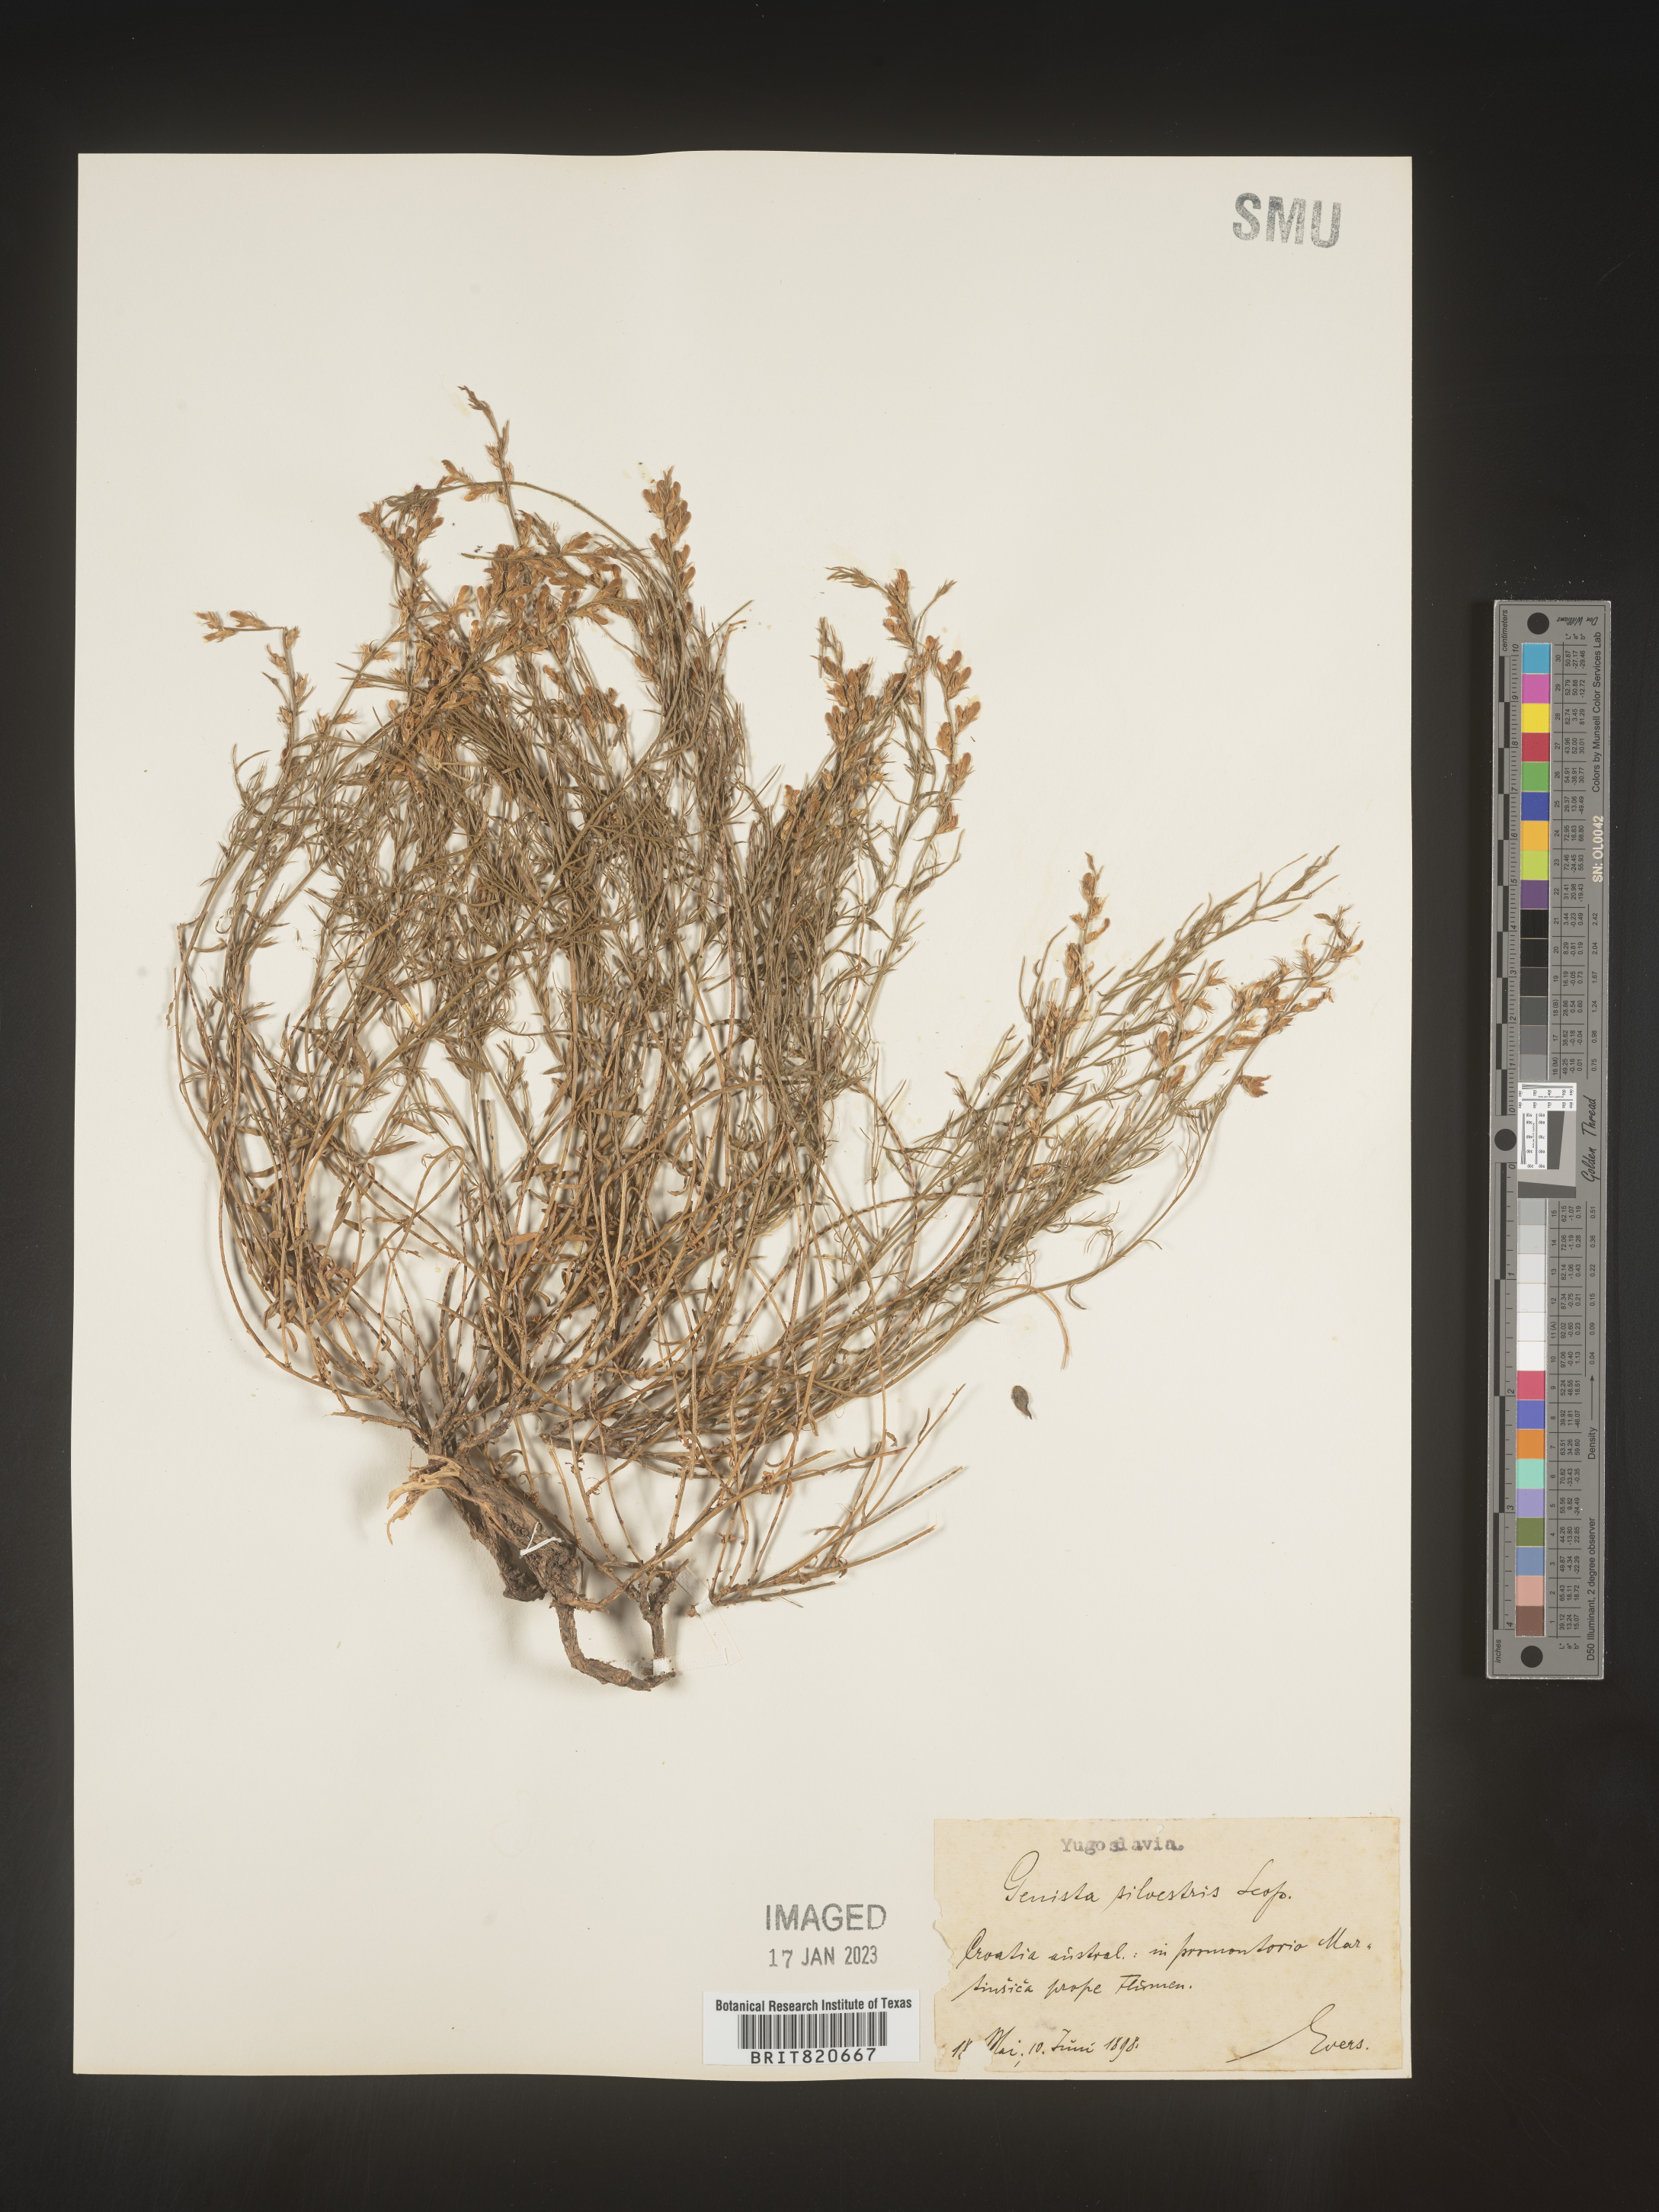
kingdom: Plantae
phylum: Tracheophyta
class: Magnoliopsida
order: Fabales
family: Fabaceae
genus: Genista
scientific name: Genista
